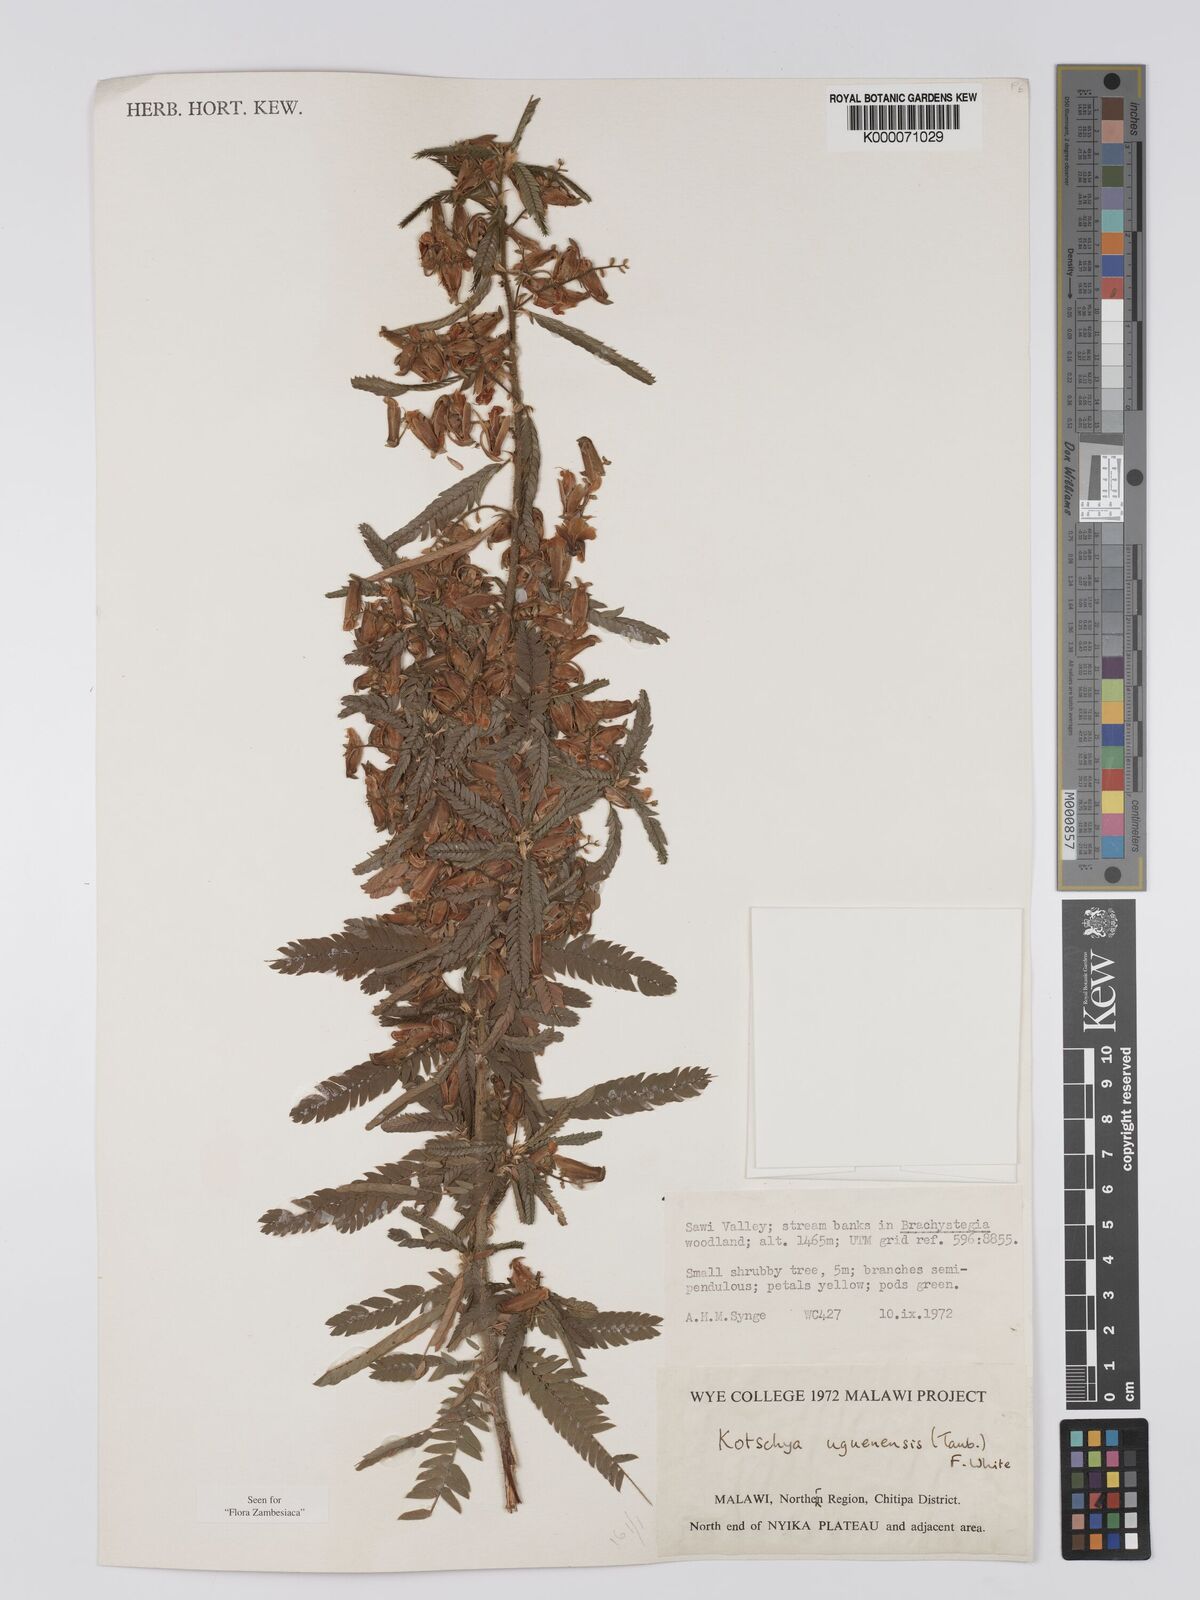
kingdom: Plantae
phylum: Tracheophyta
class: Magnoliopsida
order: Fabales
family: Fabaceae
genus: Kotschya
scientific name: Kotschya uguenensis
